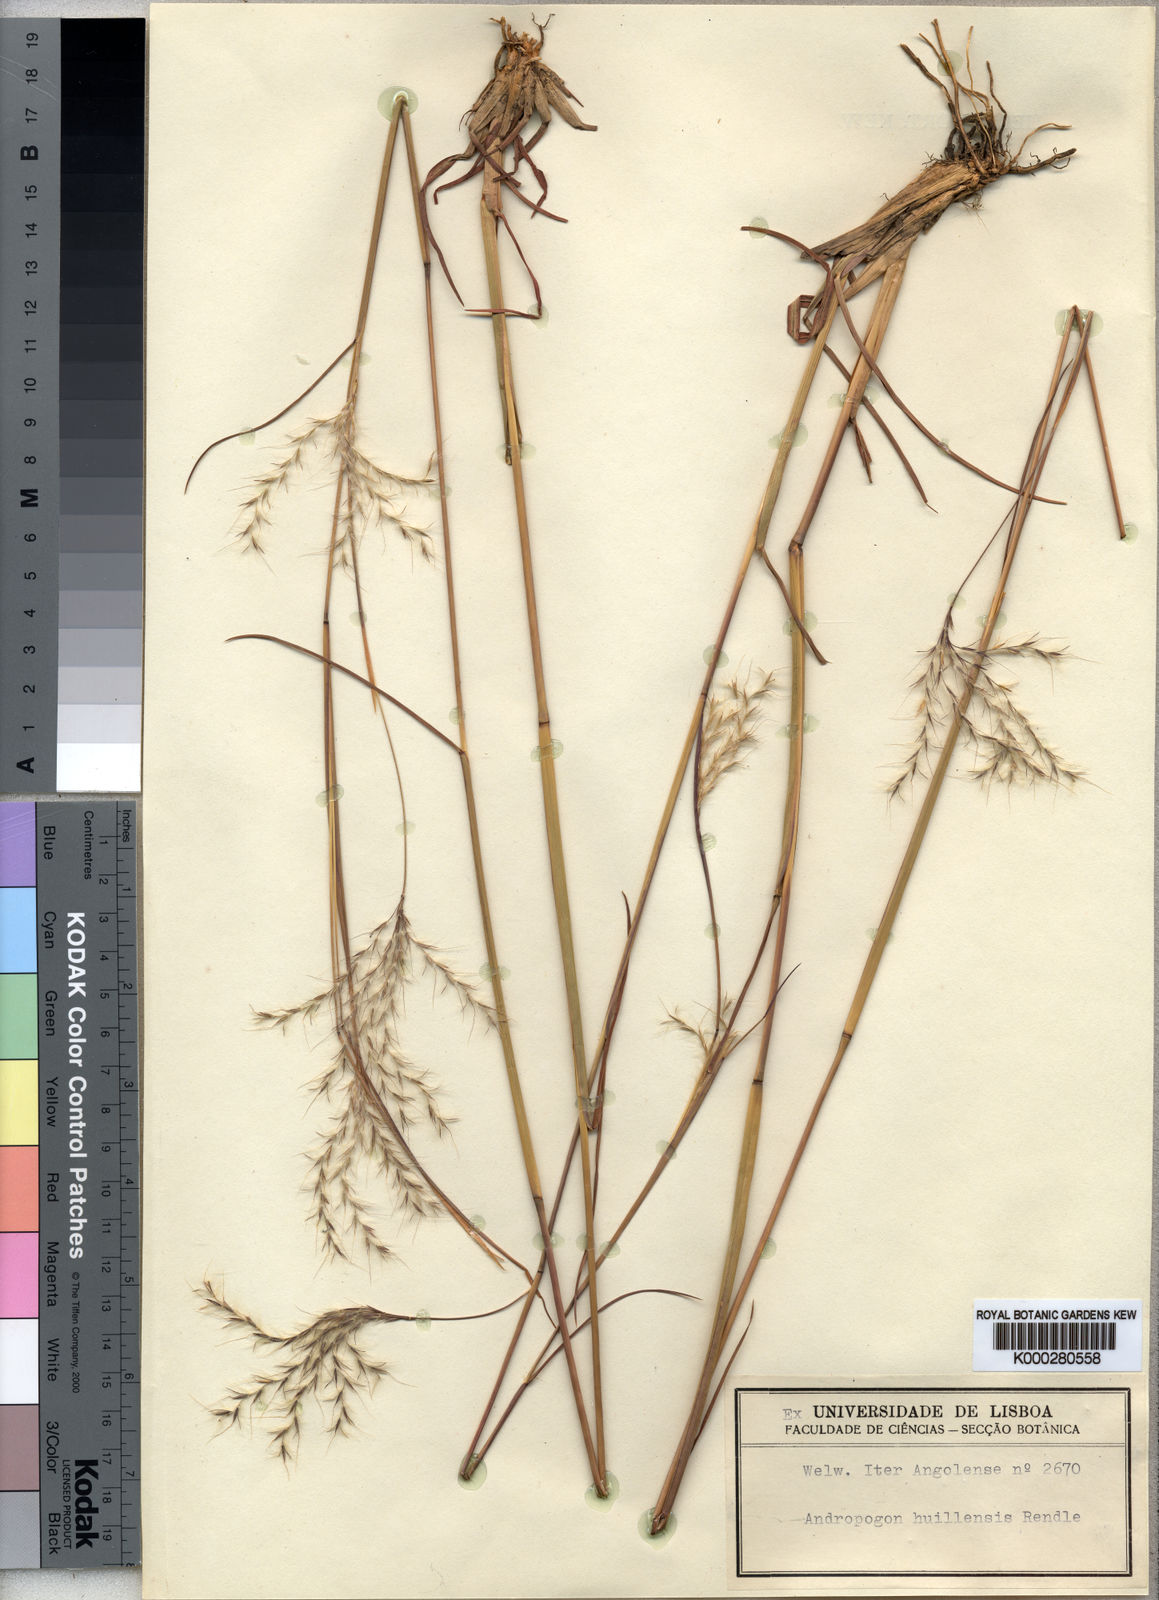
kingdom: Plantae
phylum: Tracheophyta
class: Liliopsida
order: Poales
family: Poaceae
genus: Andropogon
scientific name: Andropogon eucomus
